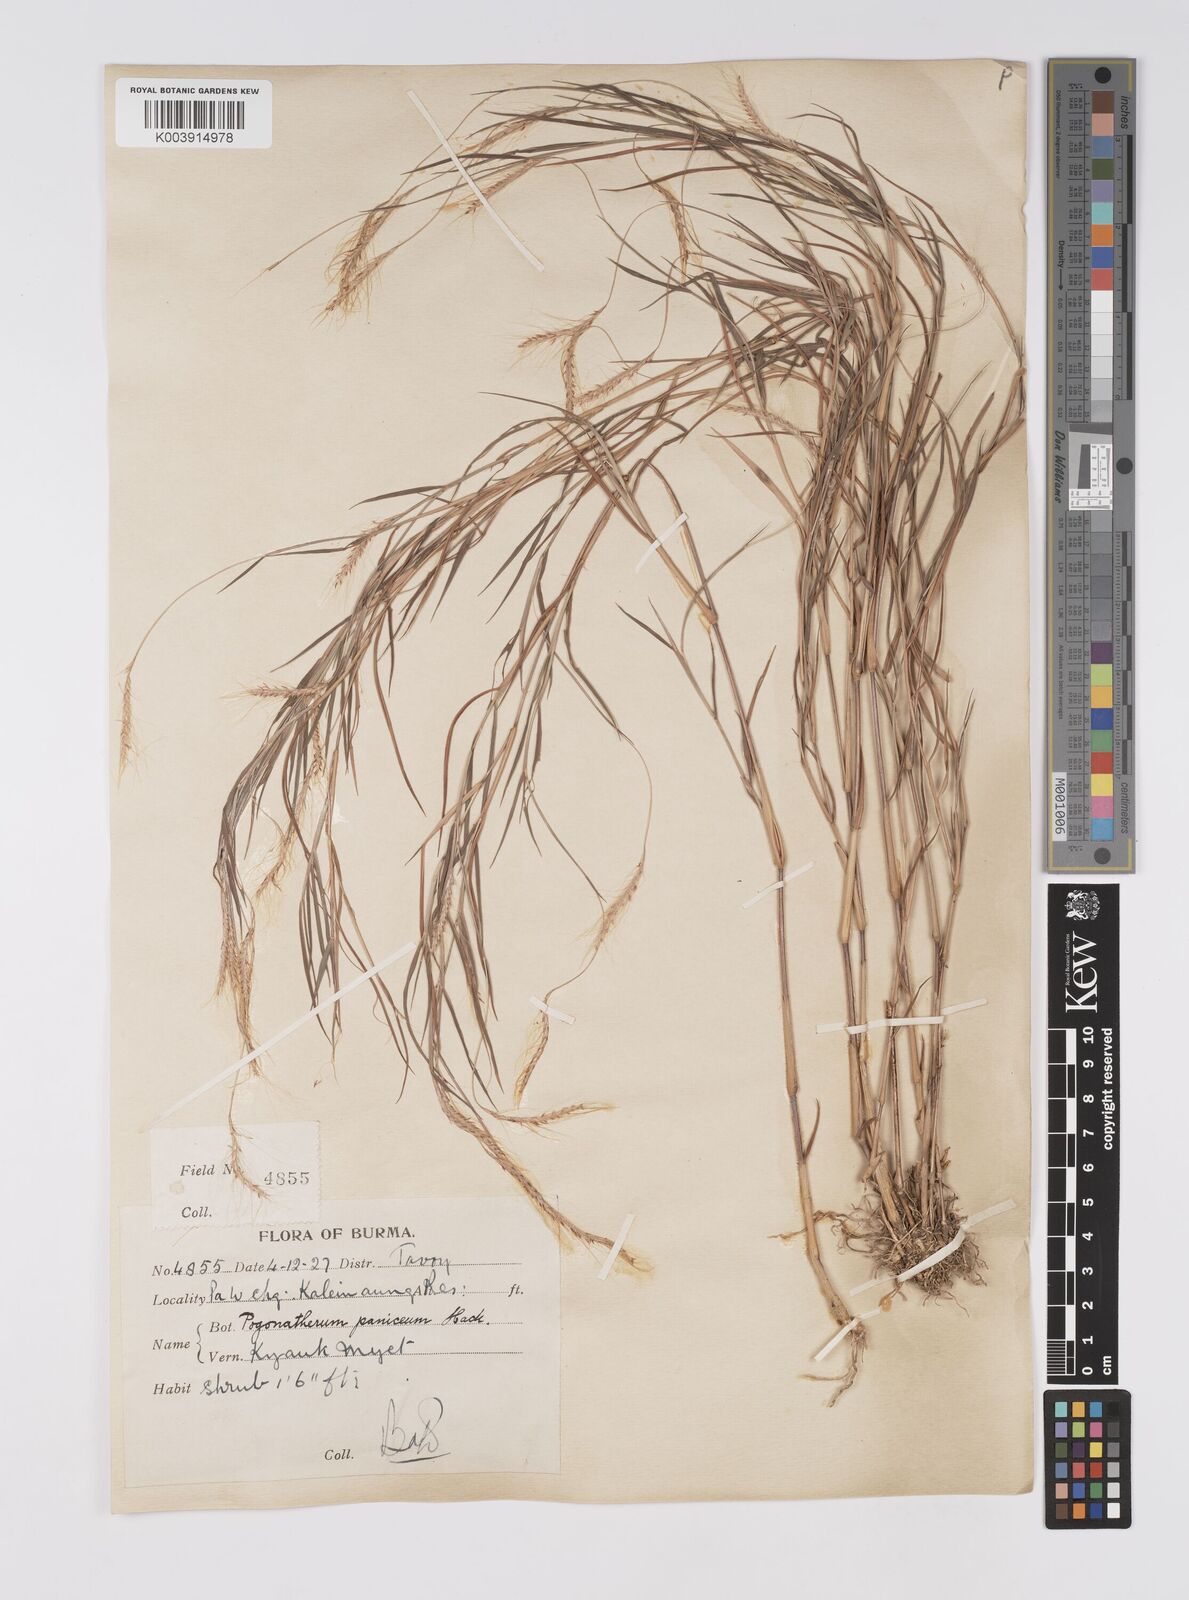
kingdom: Plantae
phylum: Tracheophyta
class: Liliopsida
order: Poales
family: Poaceae
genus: Pogonatherum
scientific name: Pogonatherum paniceum
